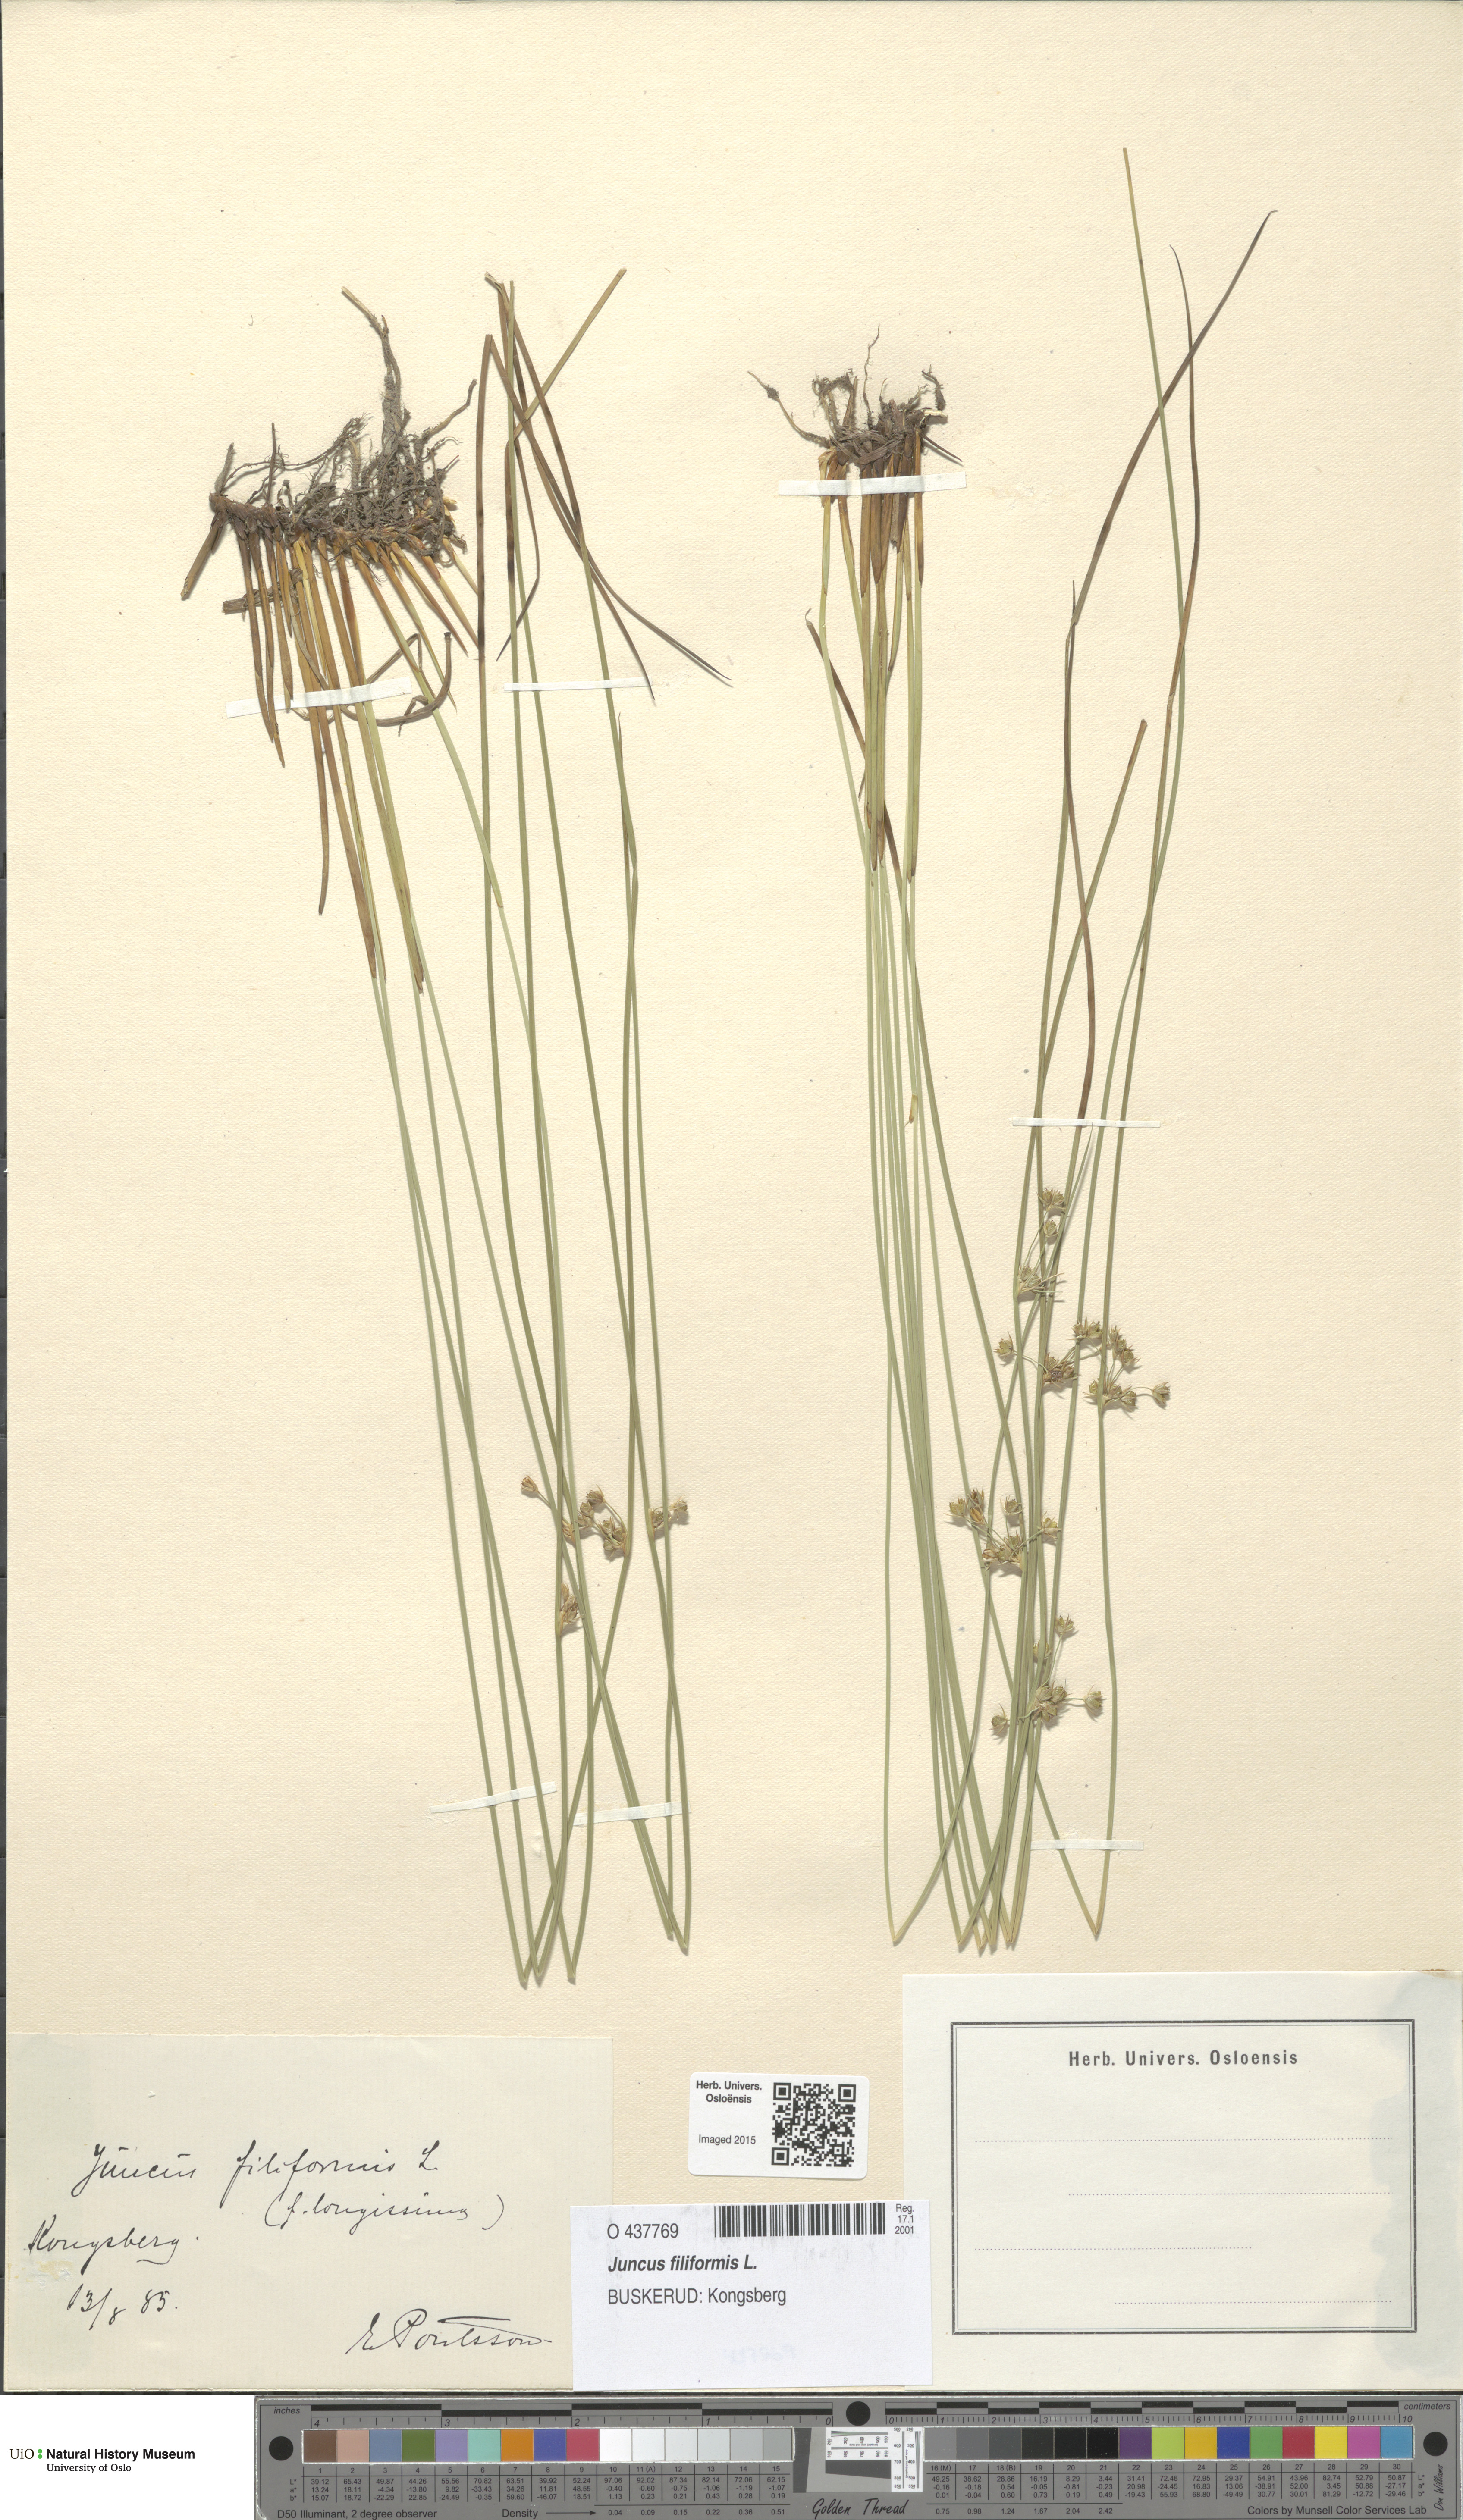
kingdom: Plantae
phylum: Tracheophyta
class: Liliopsida
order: Poales
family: Juncaceae
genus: Juncus
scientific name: Juncus filiformis
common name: Thread rush
